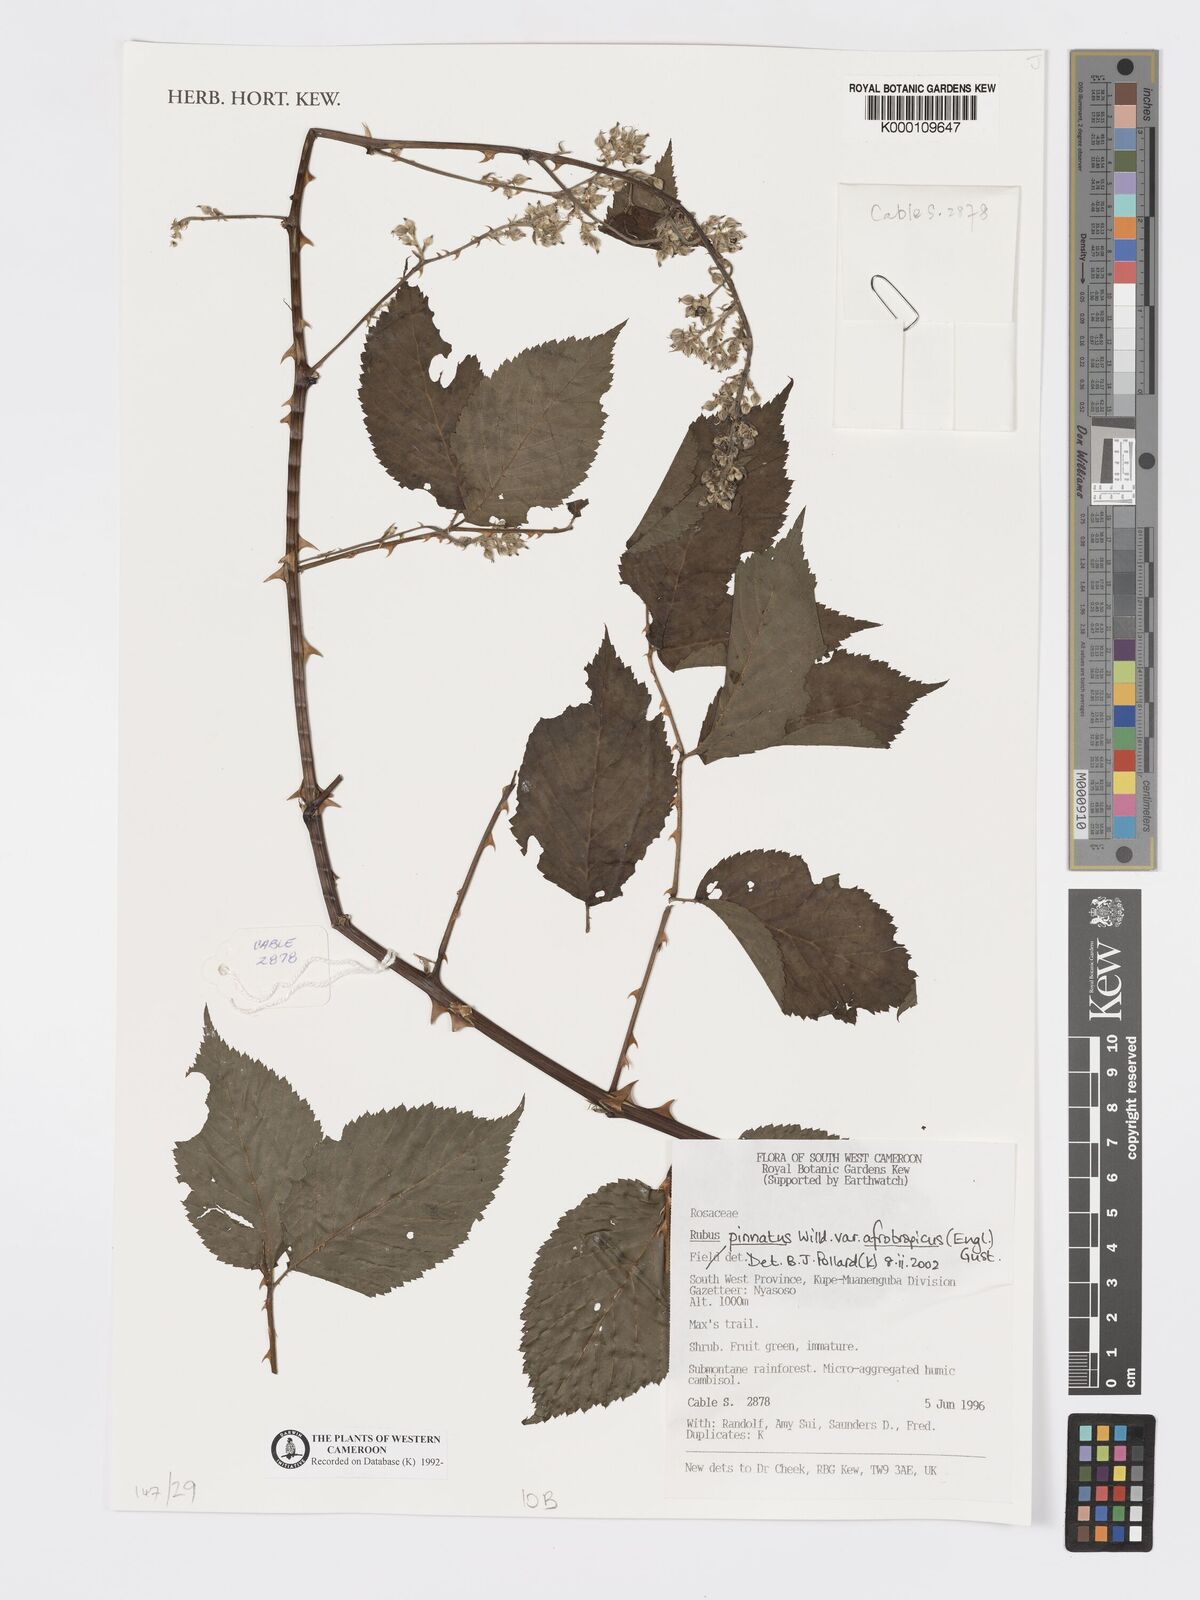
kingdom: Plantae
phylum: Tracheophyta
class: Magnoliopsida
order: Rosales
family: Rosaceae
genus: Rubus
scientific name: Rubus pinnatus
